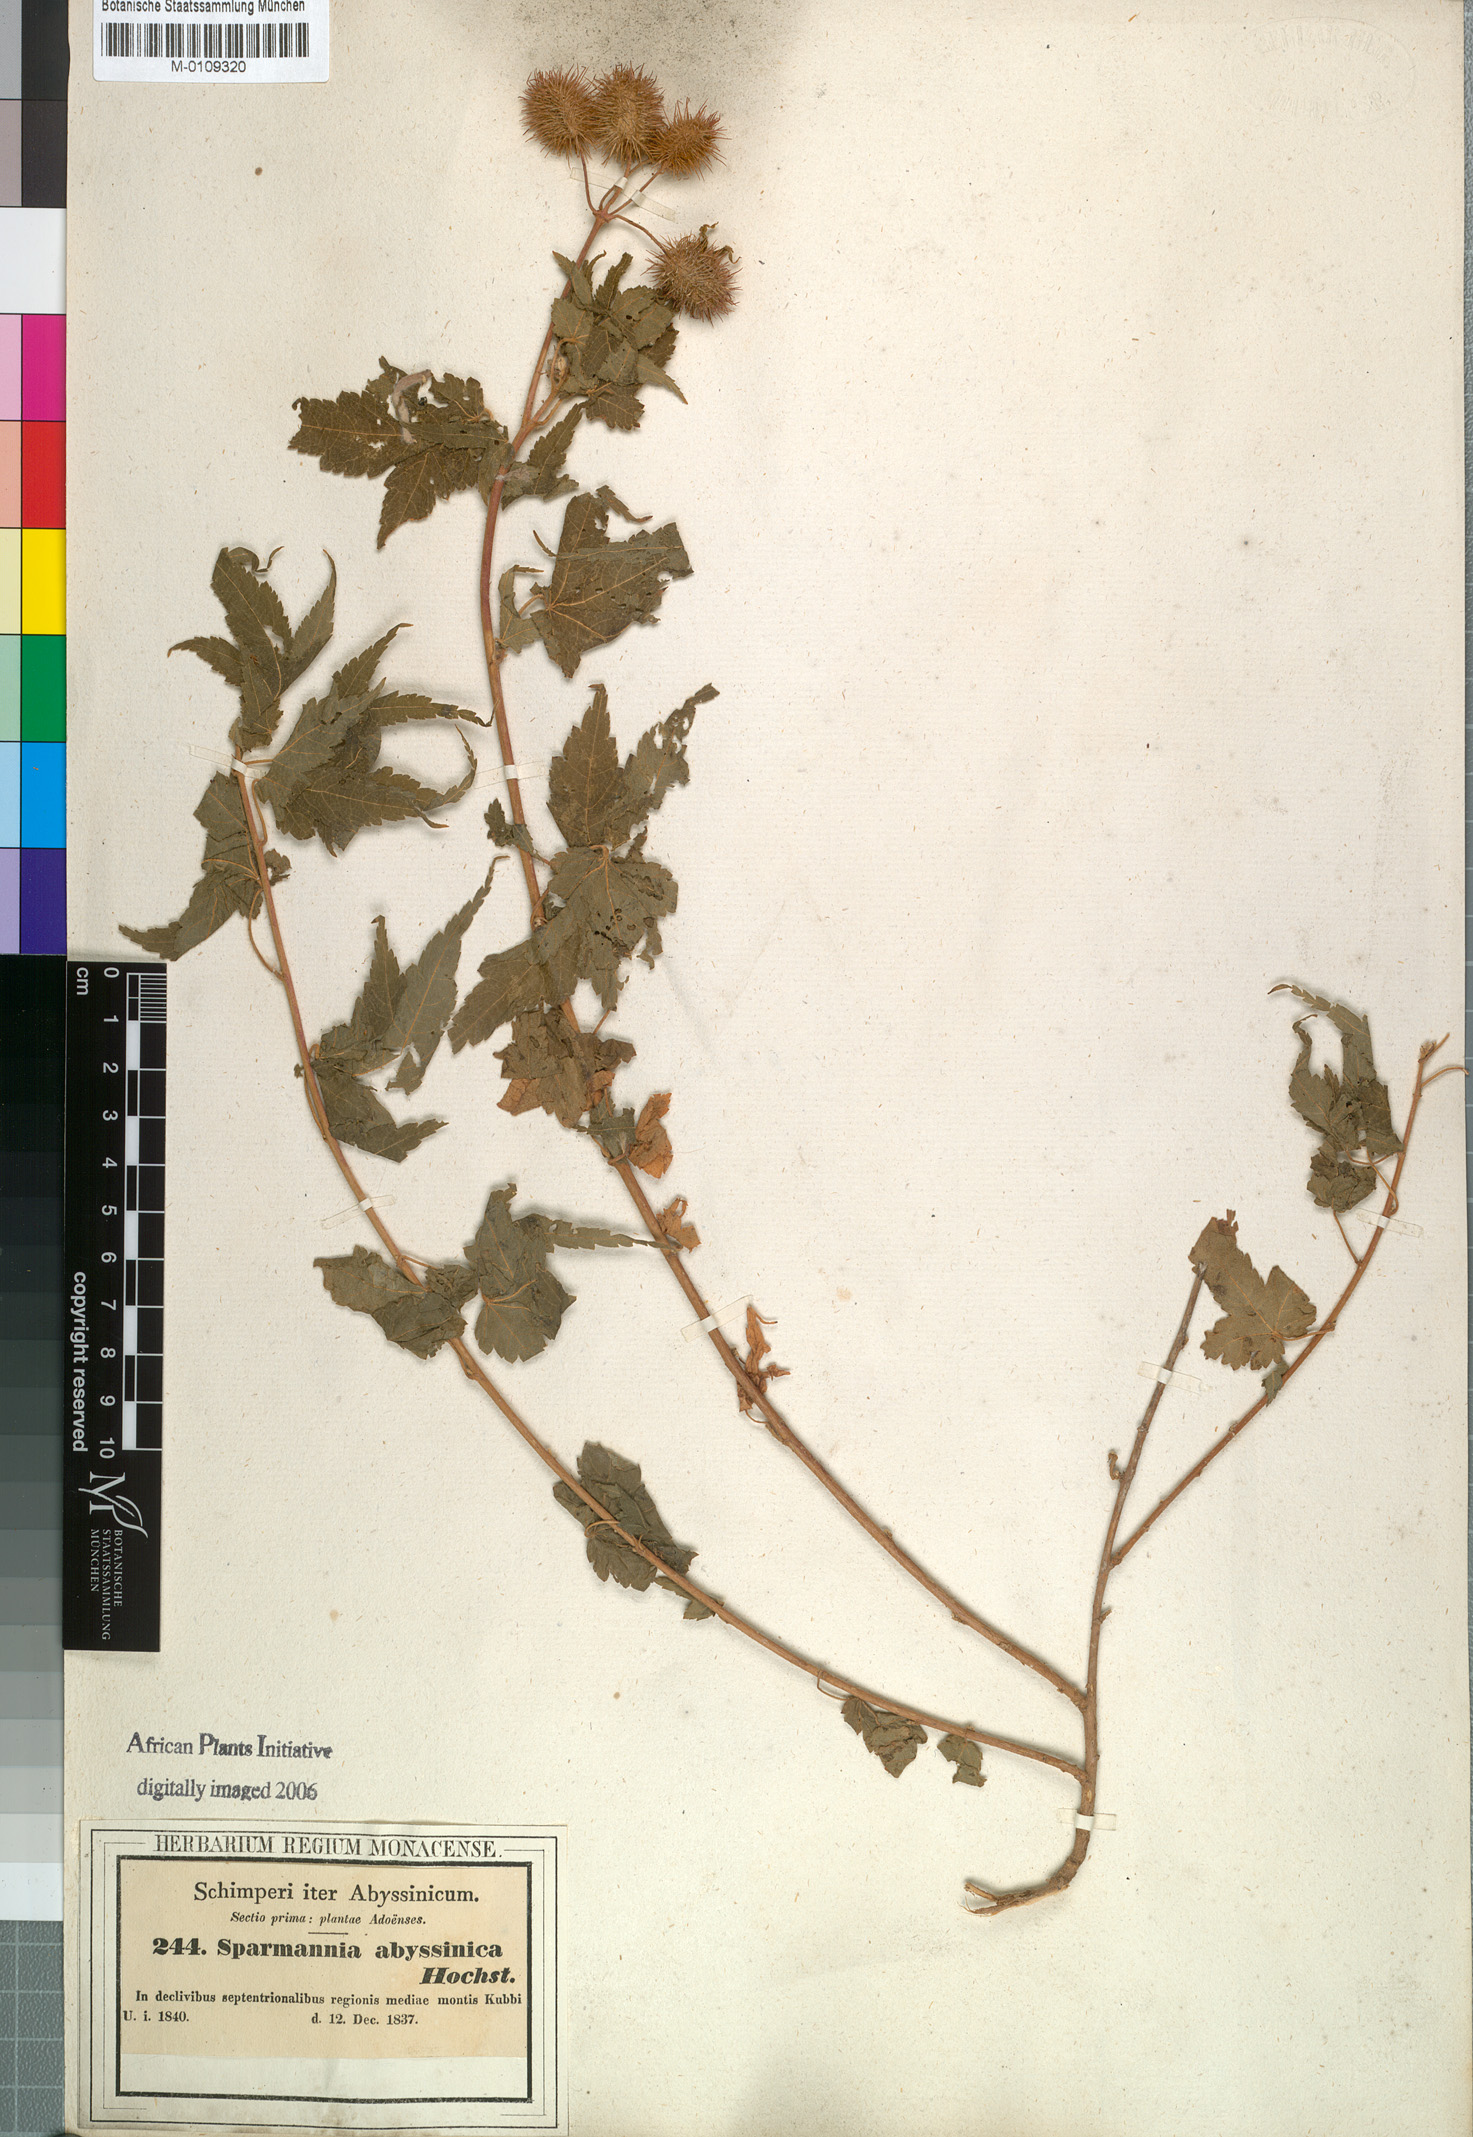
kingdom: Plantae
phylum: Tracheophyta
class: Magnoliopsida
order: Malvales
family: Malvaceae
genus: Sparmannia
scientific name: Sparmannia abyssinica
